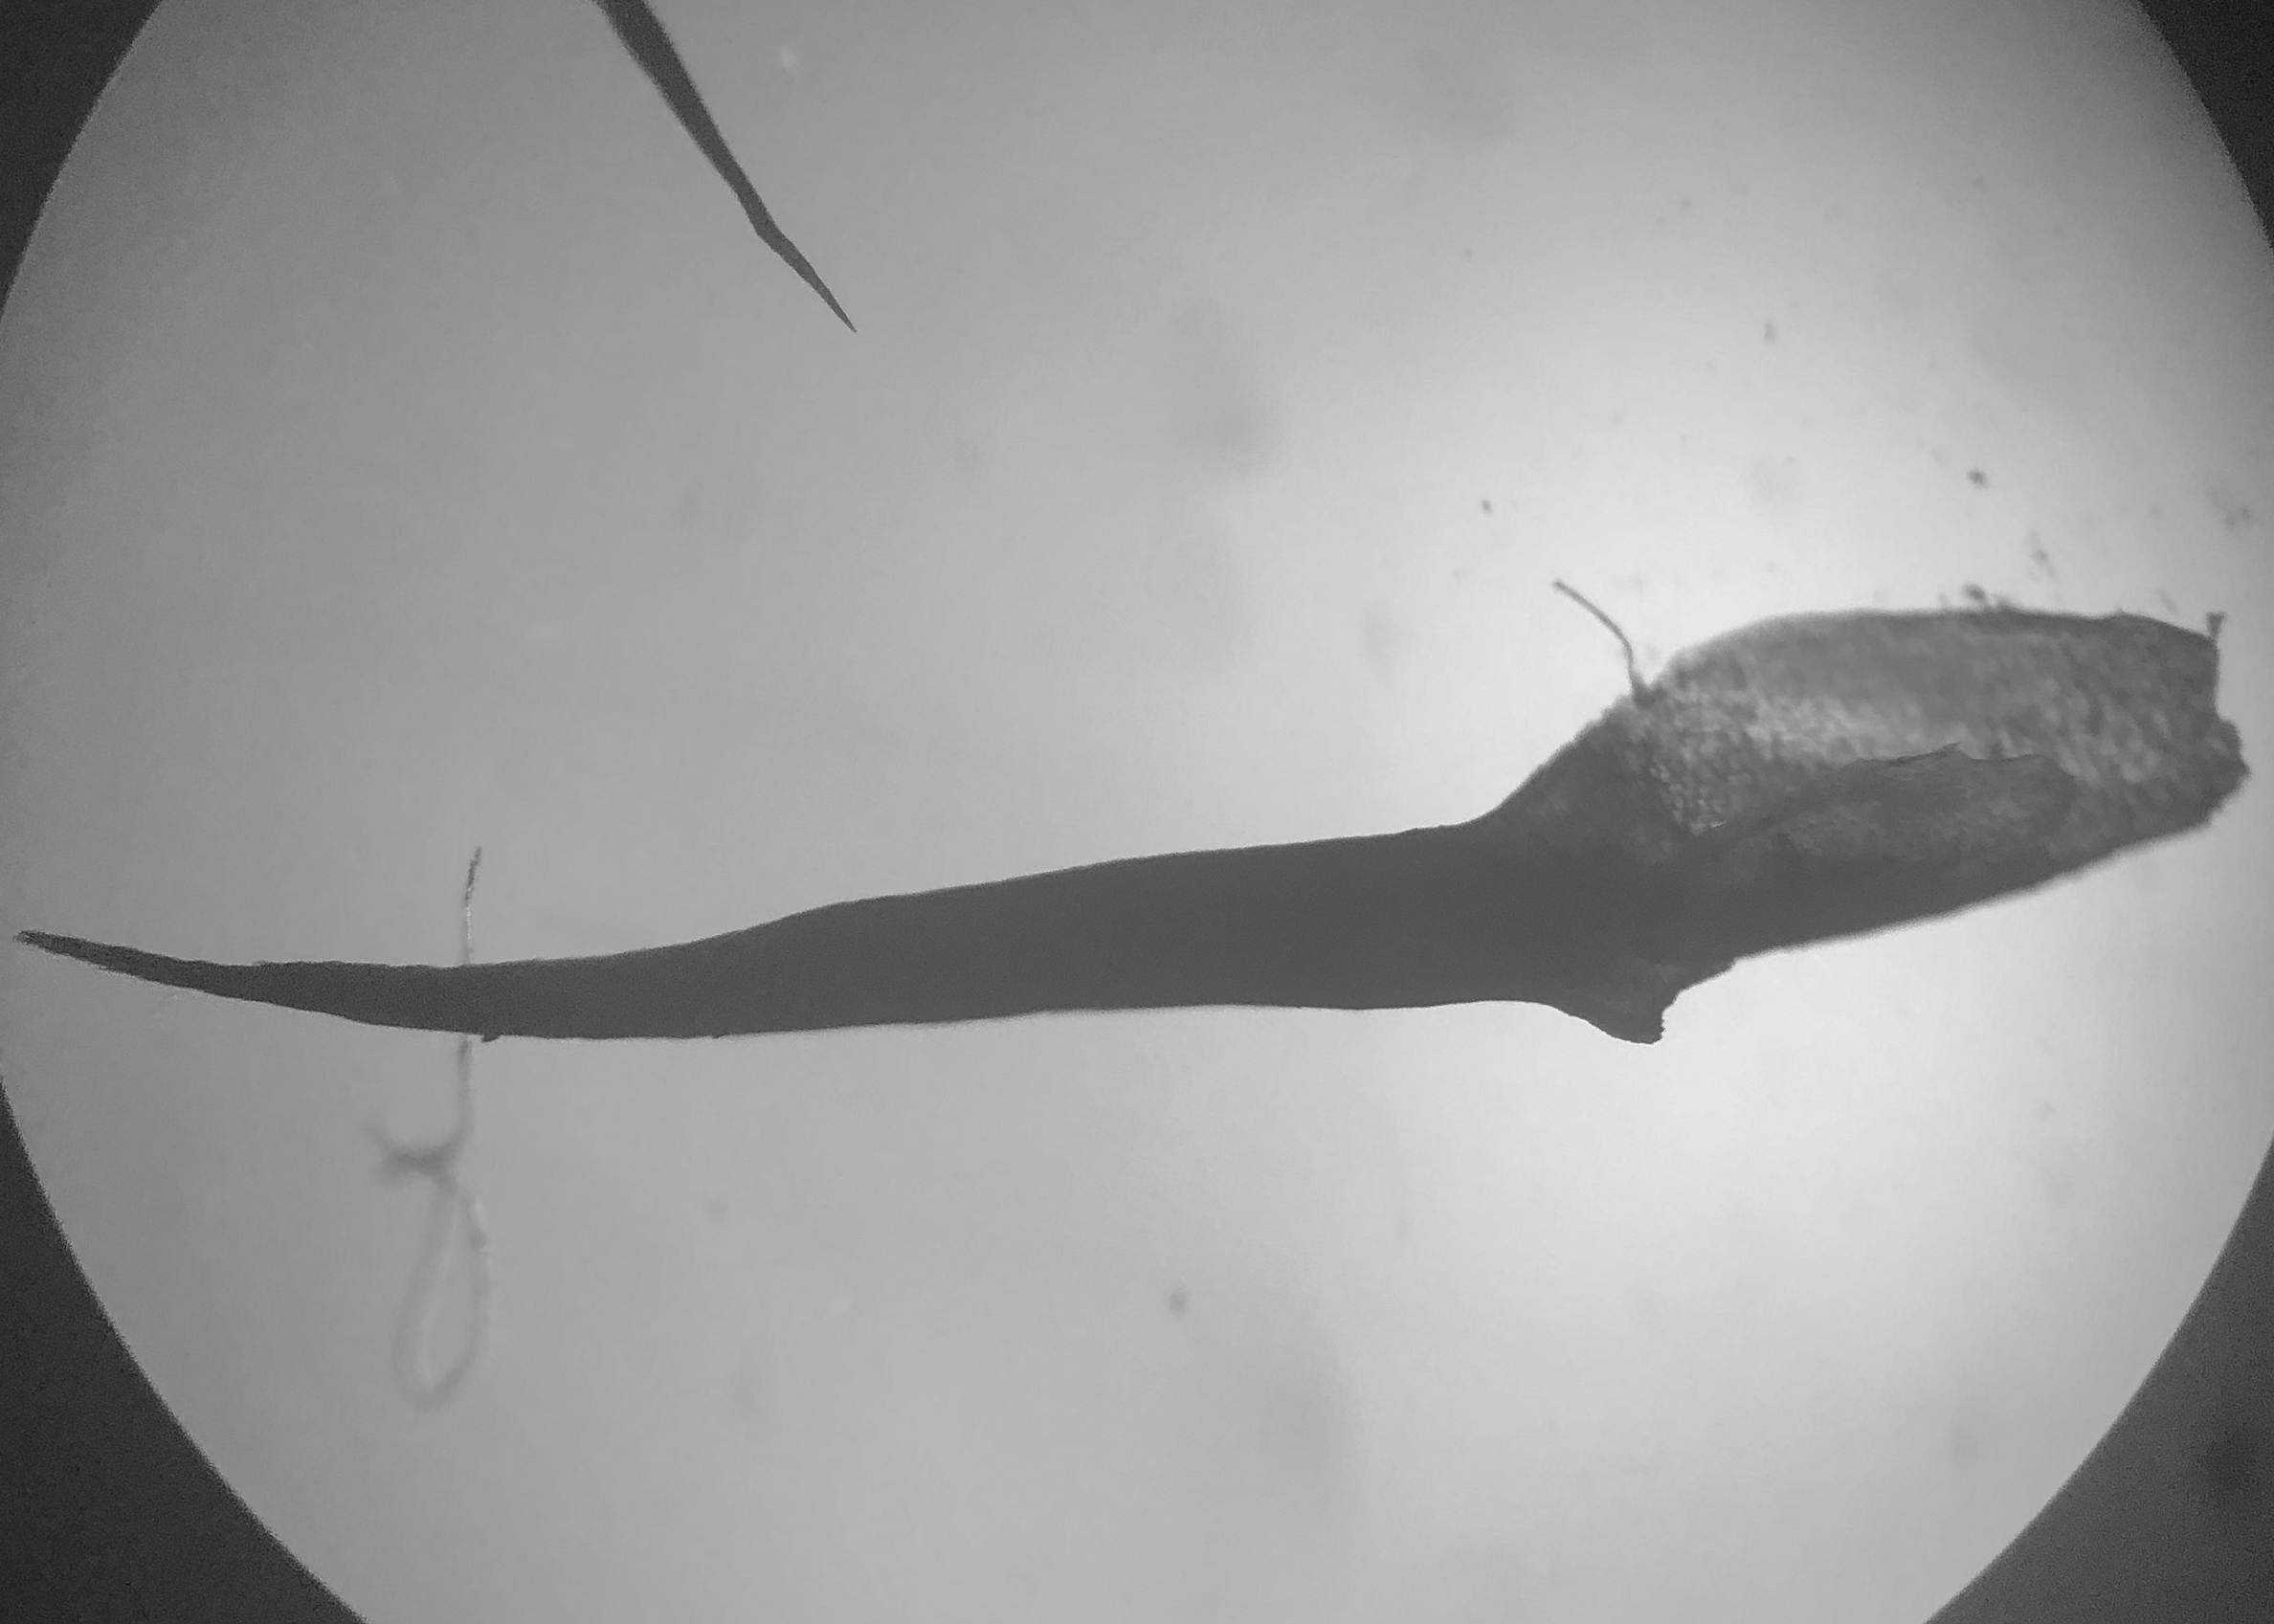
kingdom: Plantae
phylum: Bryophyta
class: Polytrichopsida
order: Polytrichales
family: Polytrichaceae
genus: Polytrichum
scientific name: Polytrichum commune
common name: Almindelig jomfruhår
